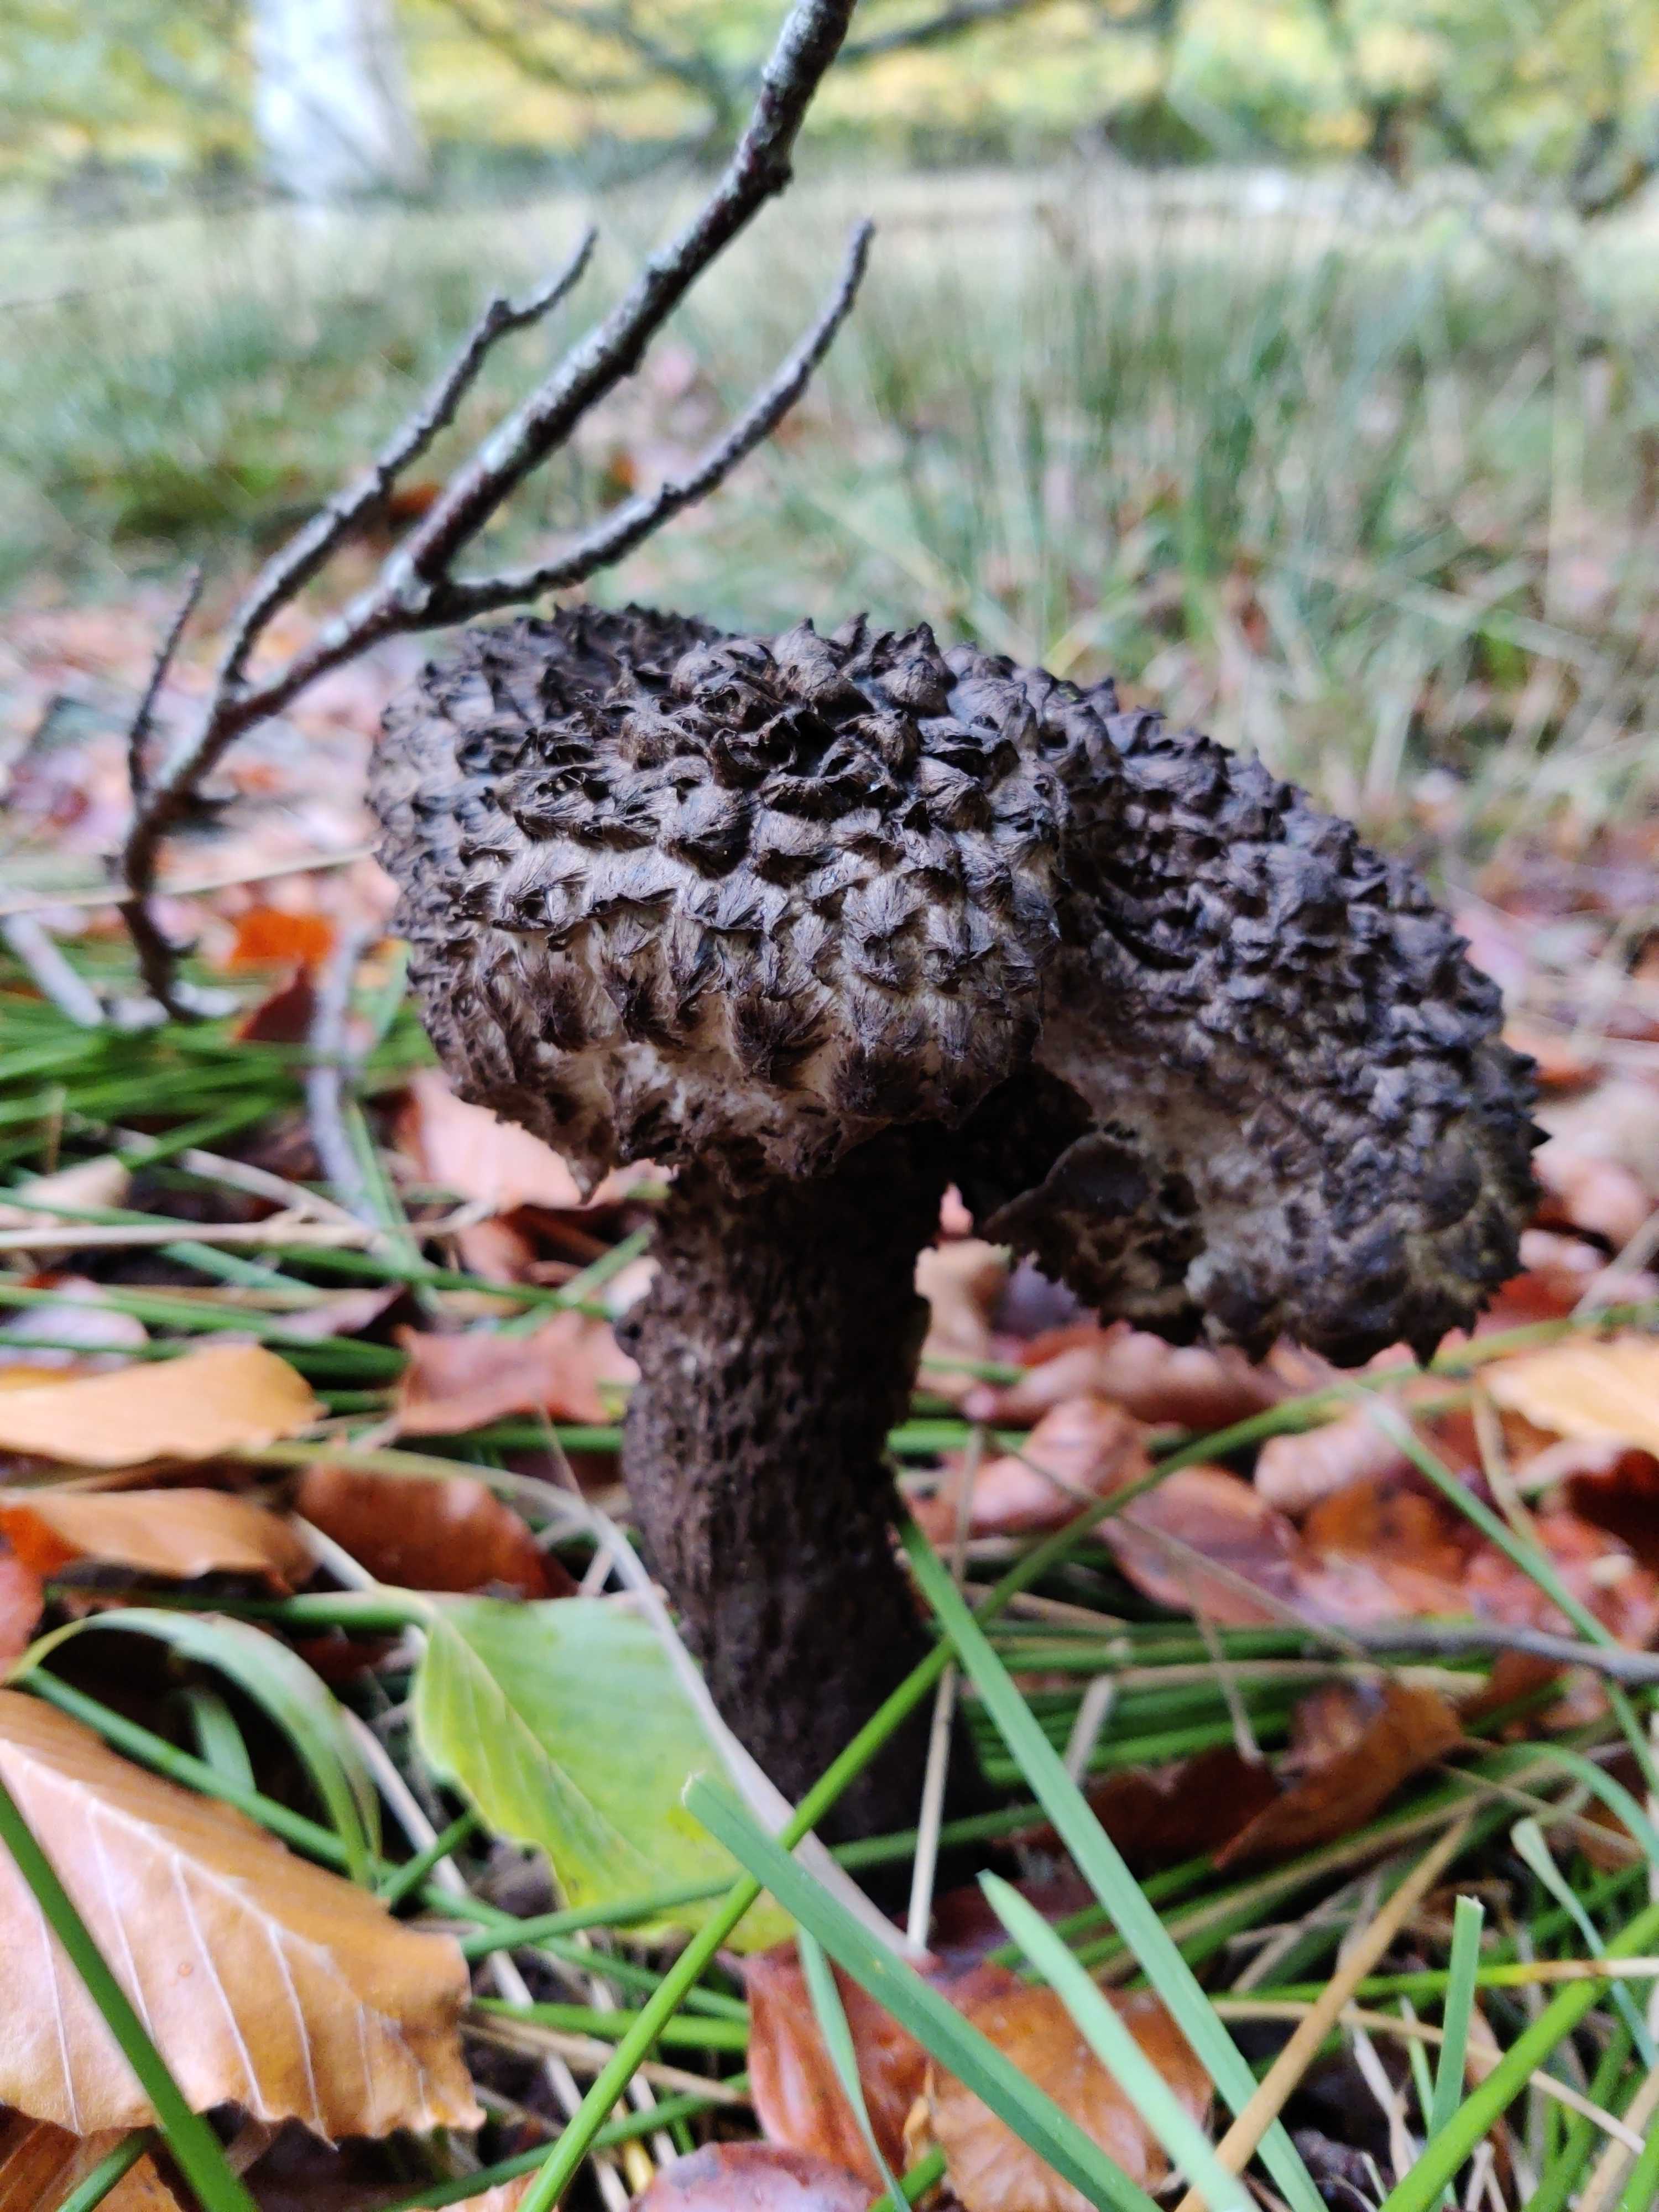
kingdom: Fungi
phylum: Basidiomycota
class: Agaricomycetes
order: Boletales
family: Boletaceae
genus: Strobilomyces
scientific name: Strobilomyces strobilaceus
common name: koglerørhat
